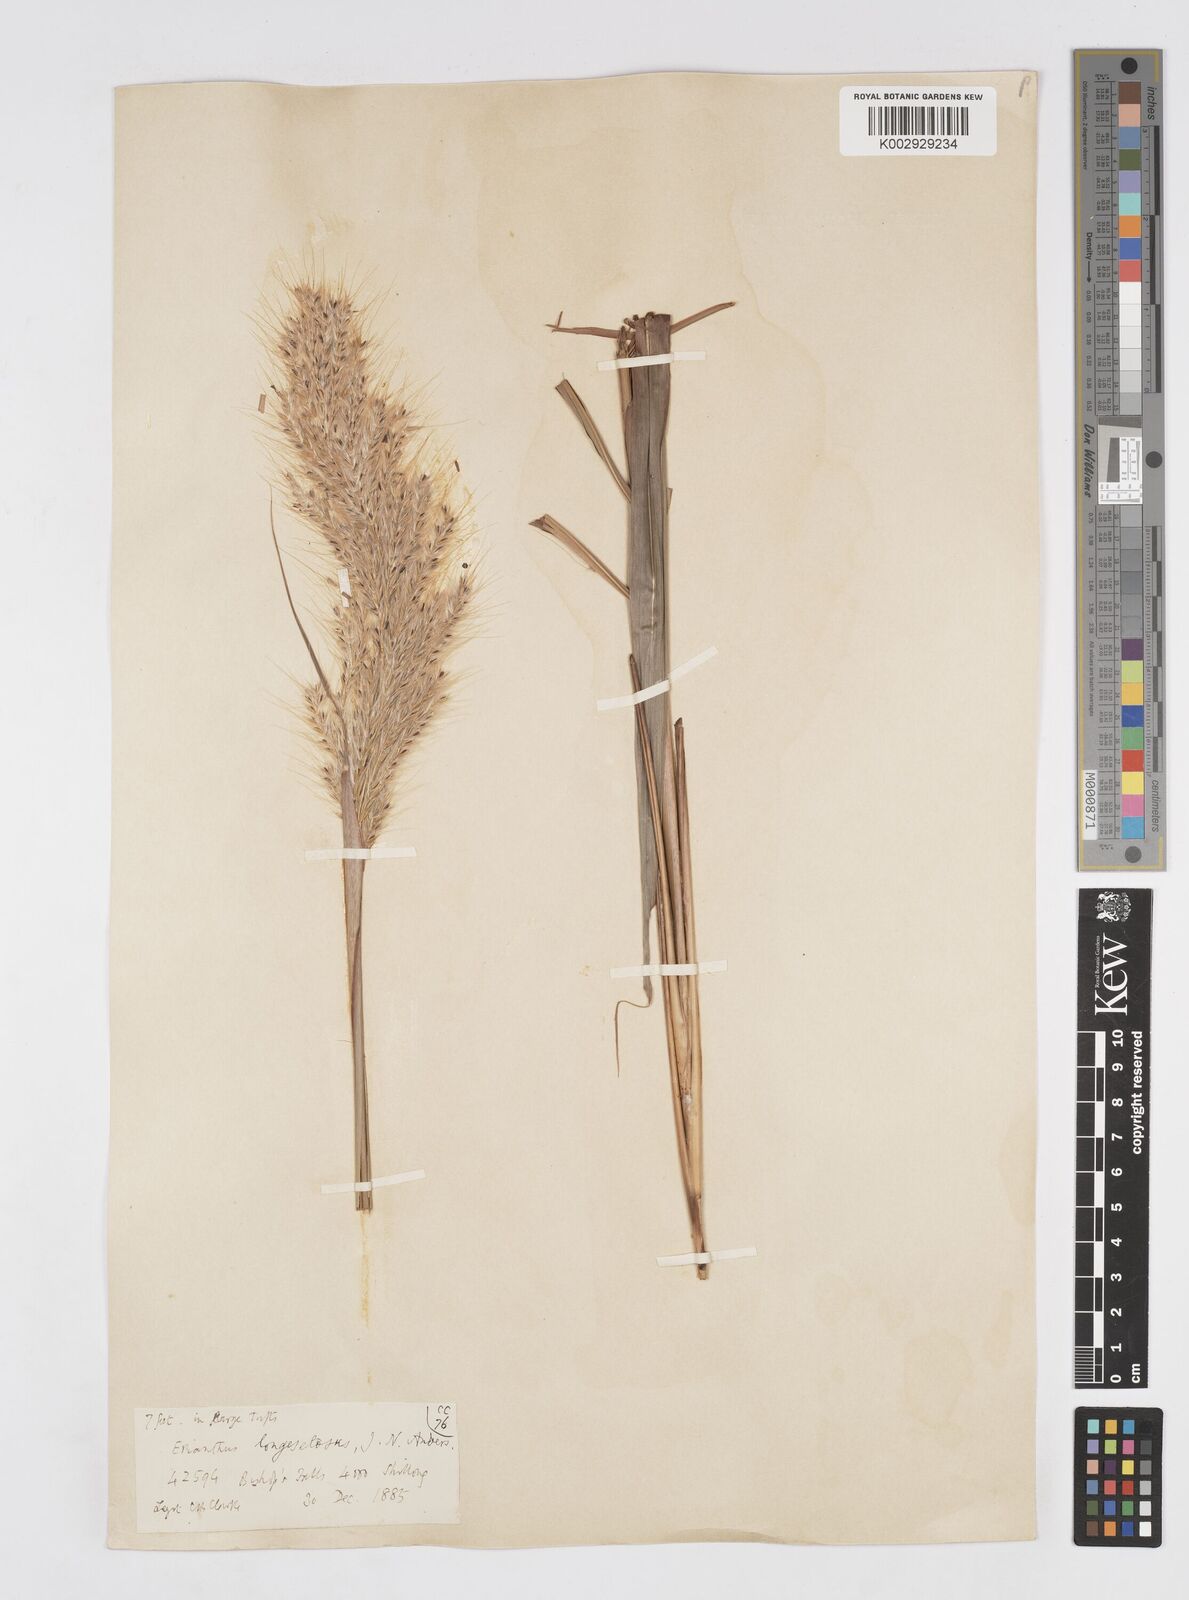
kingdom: Plantae
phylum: Tracheophyta
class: Liliopsida
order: Poales
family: Poaceae
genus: Melinis
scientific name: Melinis longiseta
